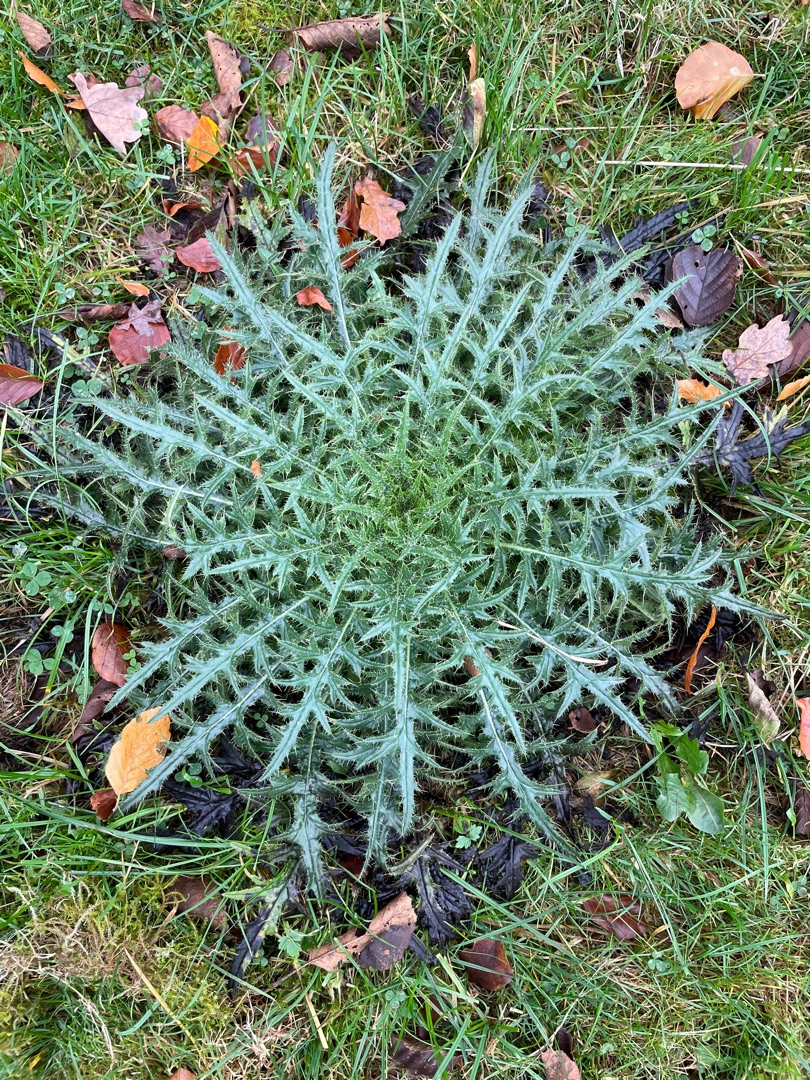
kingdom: Plantae
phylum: Tracheophyta
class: Magnoliopsida
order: Asterales
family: Asteraceae
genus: Cirsium
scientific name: Cirsium vulgare
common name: Horse-tidsel
